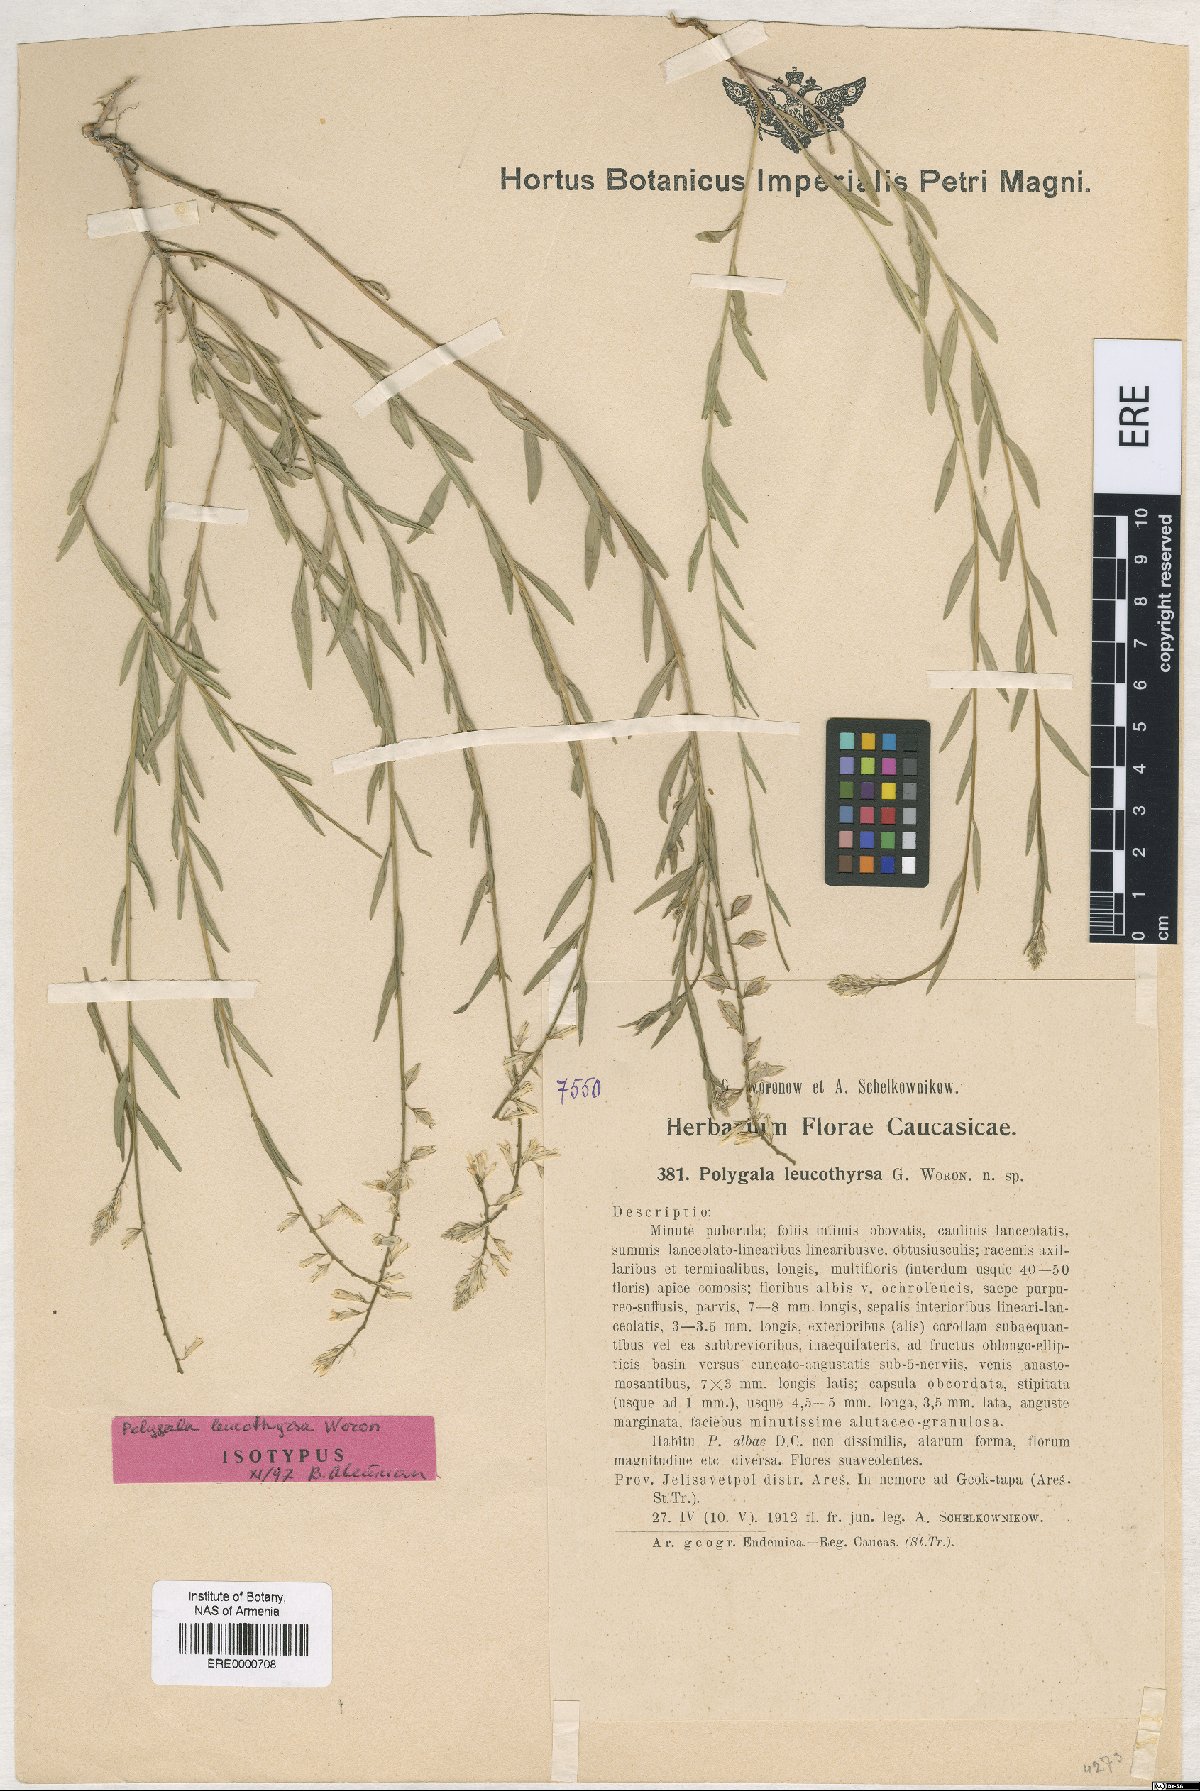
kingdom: Plantae
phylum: Tracheophyta
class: Magnoliopsida
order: Fabales
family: Polygalaceae
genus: Polygala
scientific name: Polygala leucothyrsa
